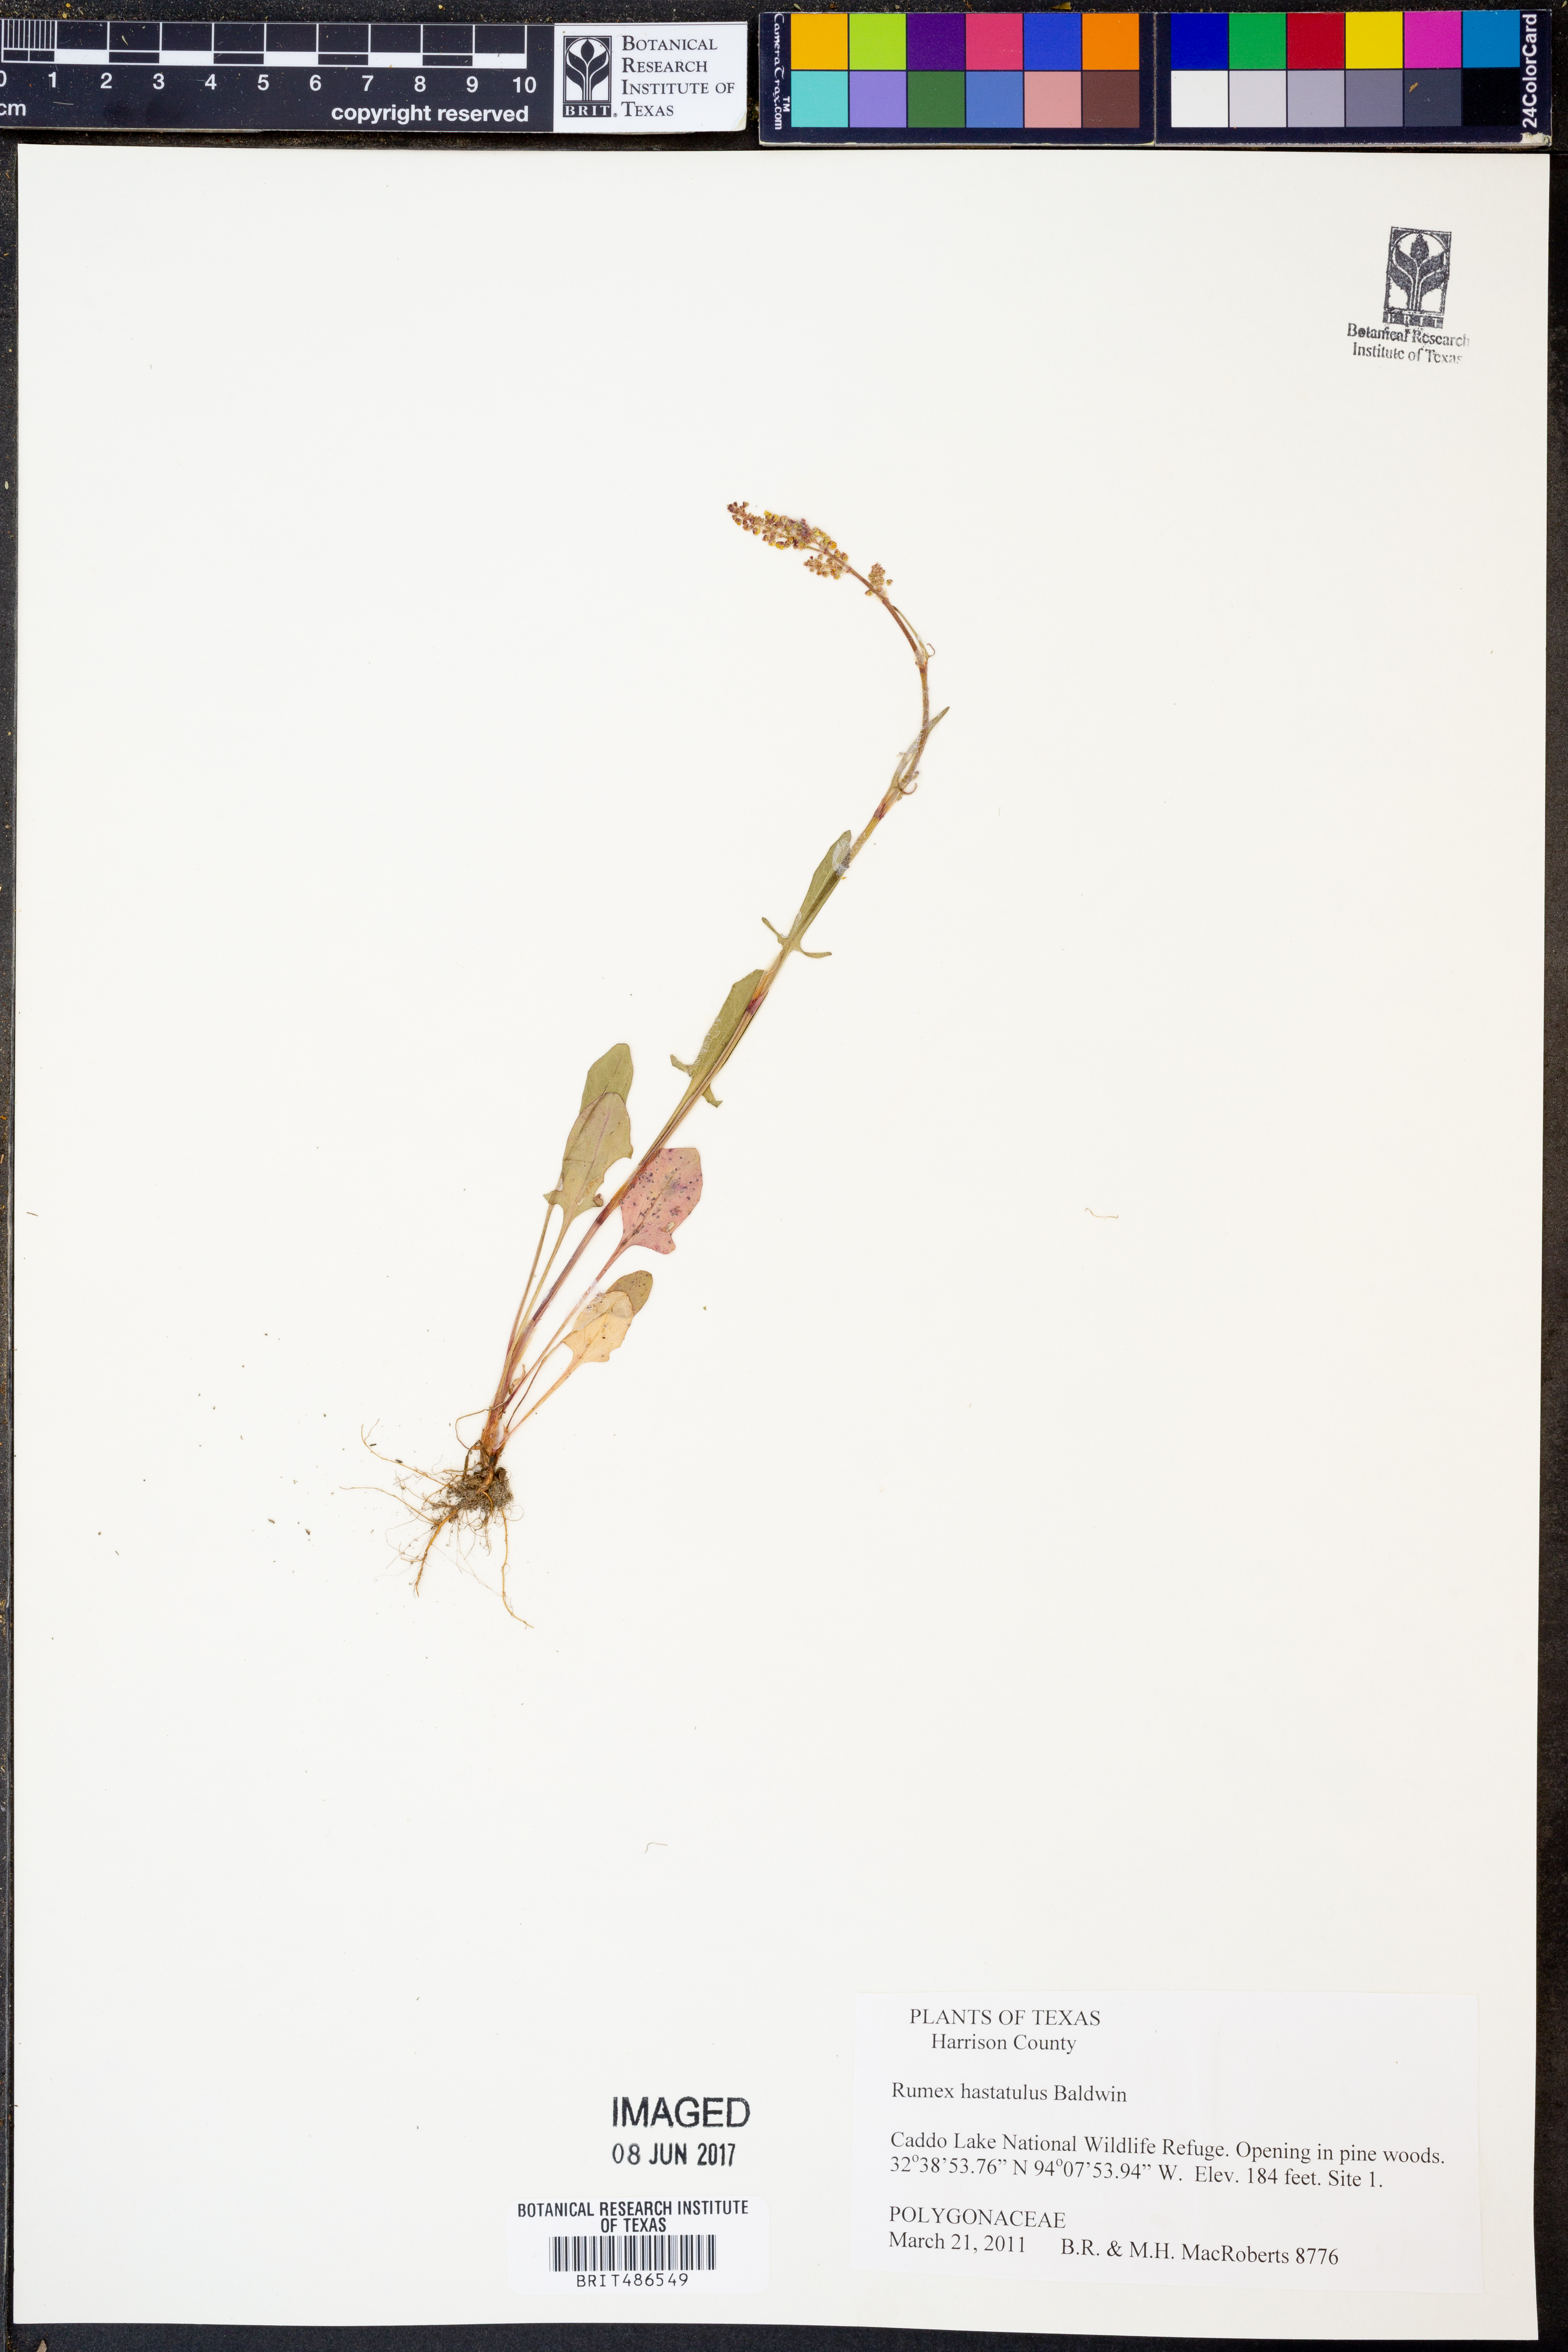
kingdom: Plantae
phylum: Tracheophyta
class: Magnoliopsida
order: Caryophyllales
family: Polygonaceae
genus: Rumex
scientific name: Rumex hastatulus
